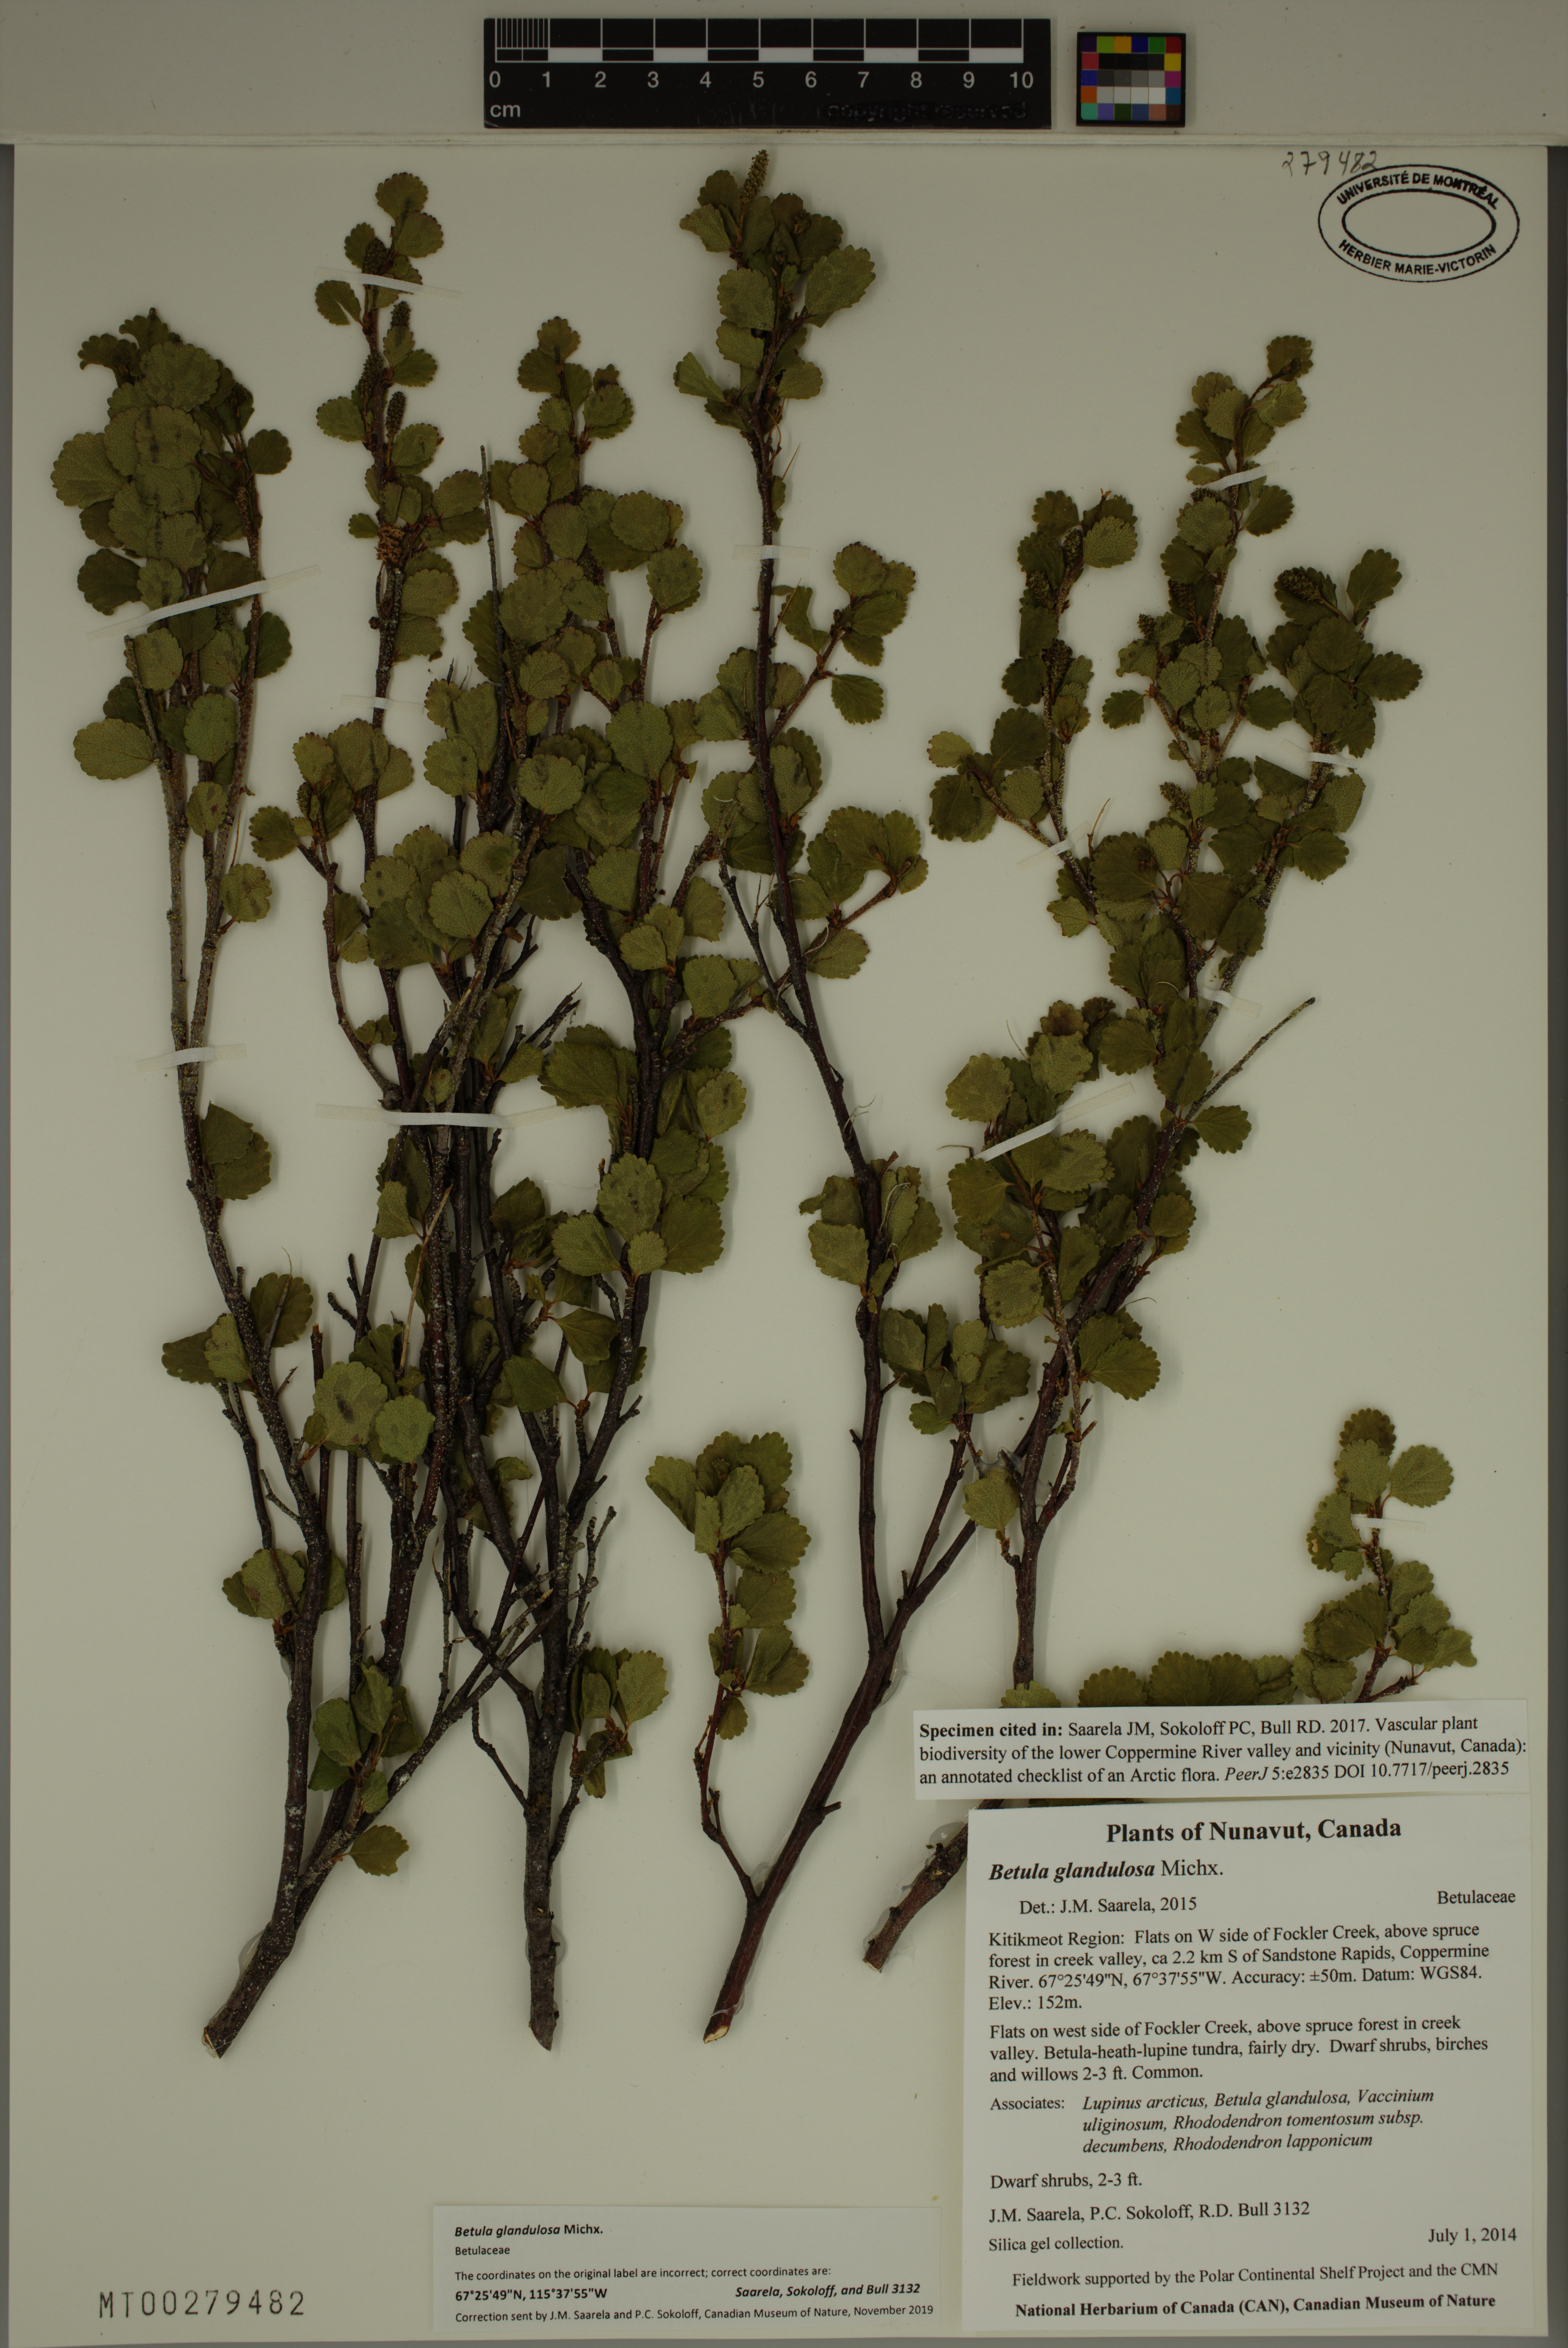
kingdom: Plantae
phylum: Tracheophyta
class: Magnoliopsida
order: Fagales
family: Betulaceae
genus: Betula
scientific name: Betula glandulosa
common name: Dwarf birch
